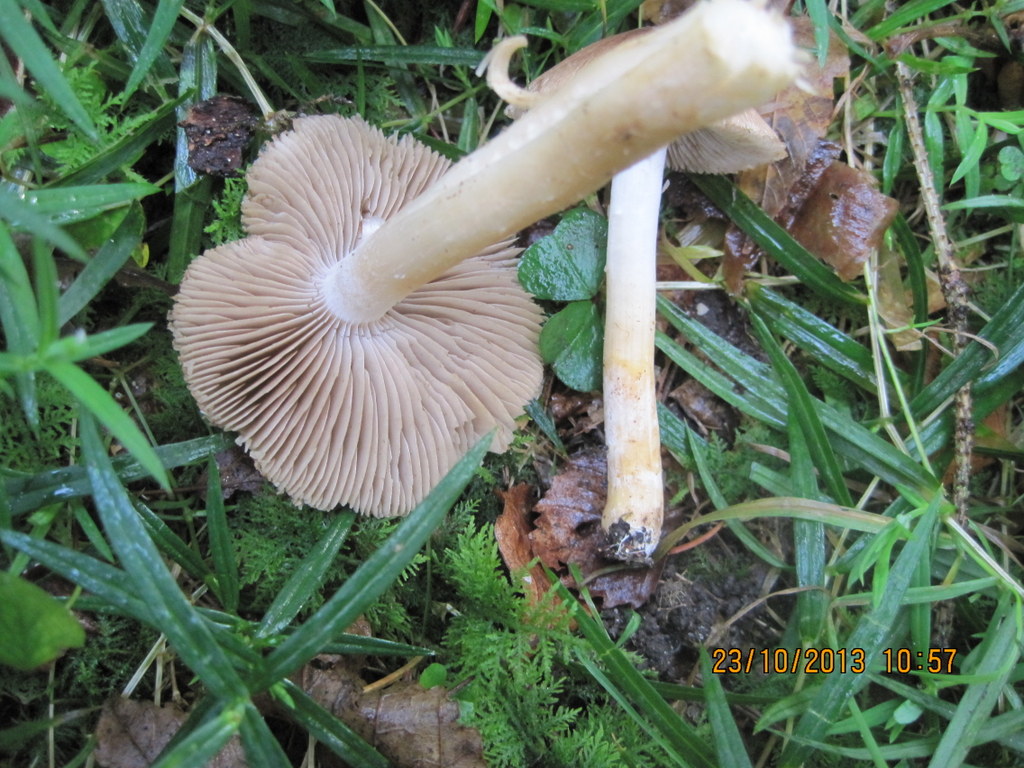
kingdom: Fungi
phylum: Basidiomycota
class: Agaricomycetes
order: Agaricales
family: Inocybaceae
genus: Pseudosperma
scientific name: Pseudosperma
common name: trævlhat
